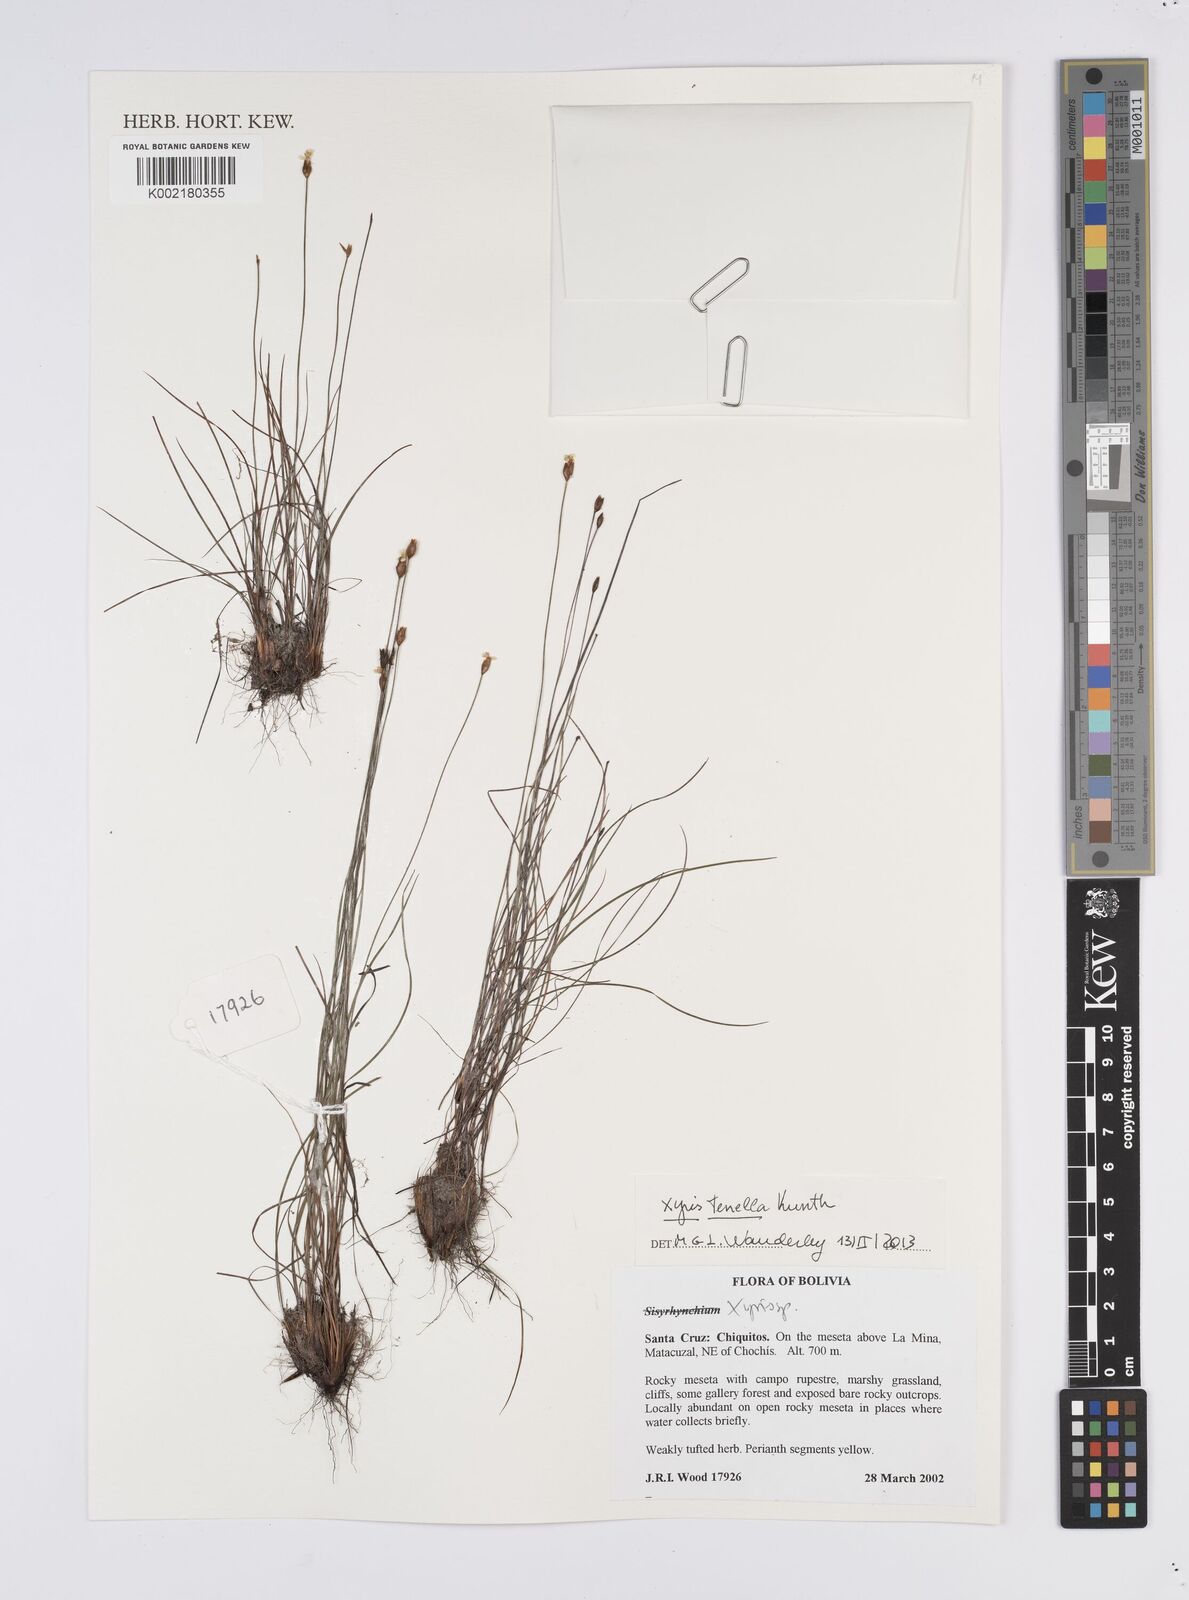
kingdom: Plantae
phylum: Tracheophyta
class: Liliopsida
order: Poales
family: Xyridaceae
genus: Xyris
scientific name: Xyris tenella
